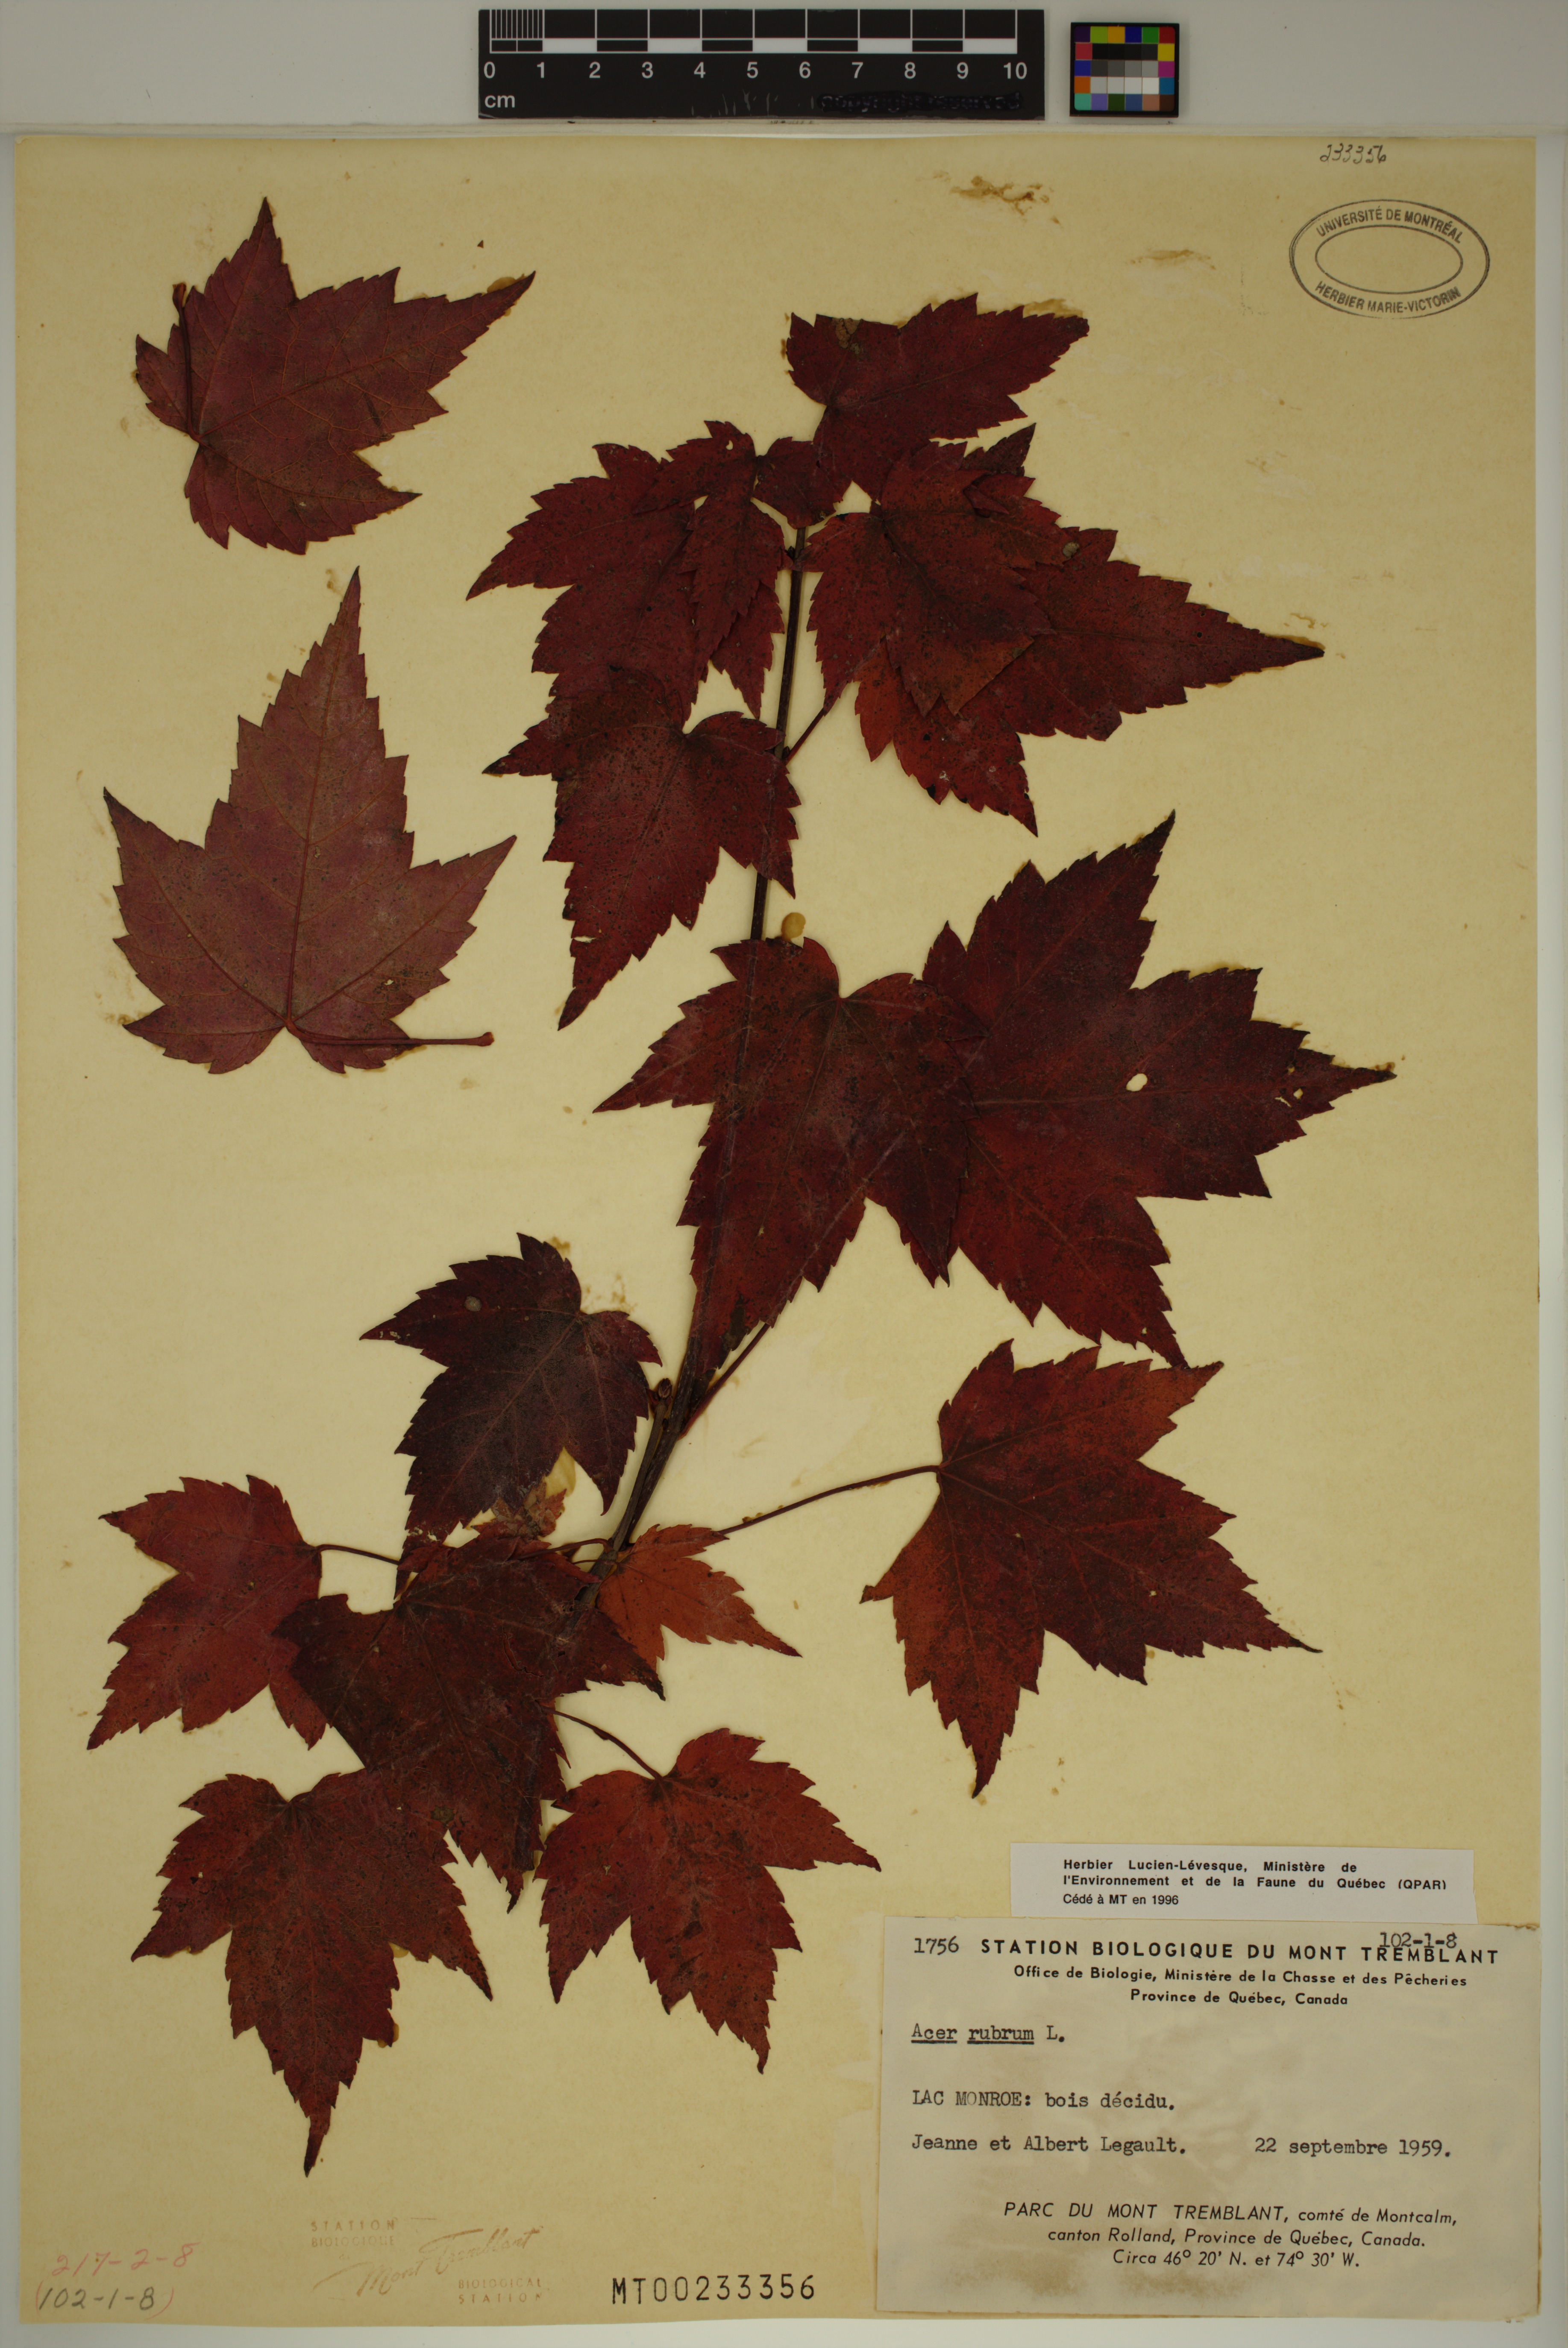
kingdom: Plantae
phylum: Tracheophyta
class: Magnoliopsida
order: Sapindales
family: Sapindaceae
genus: Acer
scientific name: Acer rubrum
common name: Red maple
